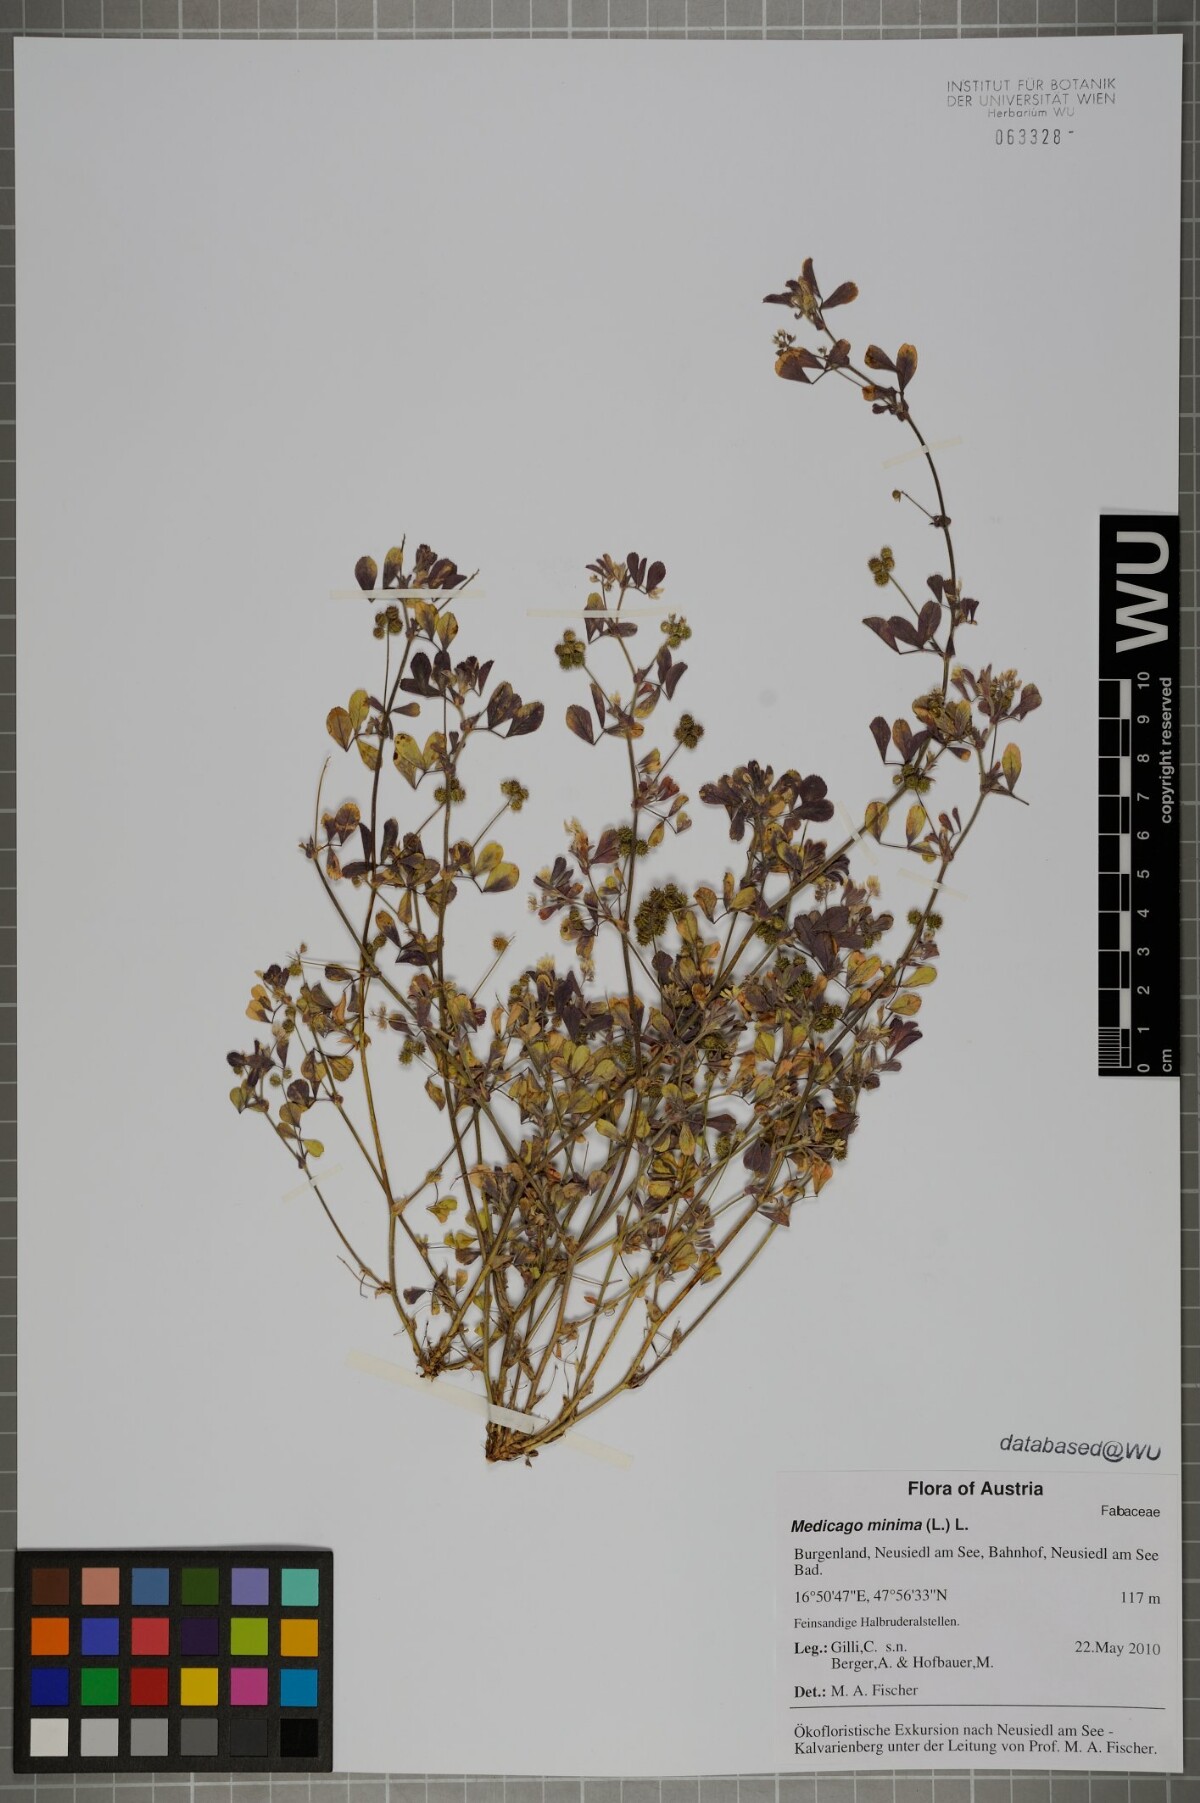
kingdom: Plantae
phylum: Tracheophyta
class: Magnoliopsida
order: Fabales
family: Fabaceae
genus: Medicago
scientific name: Medicago minima
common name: Little bur-clover
